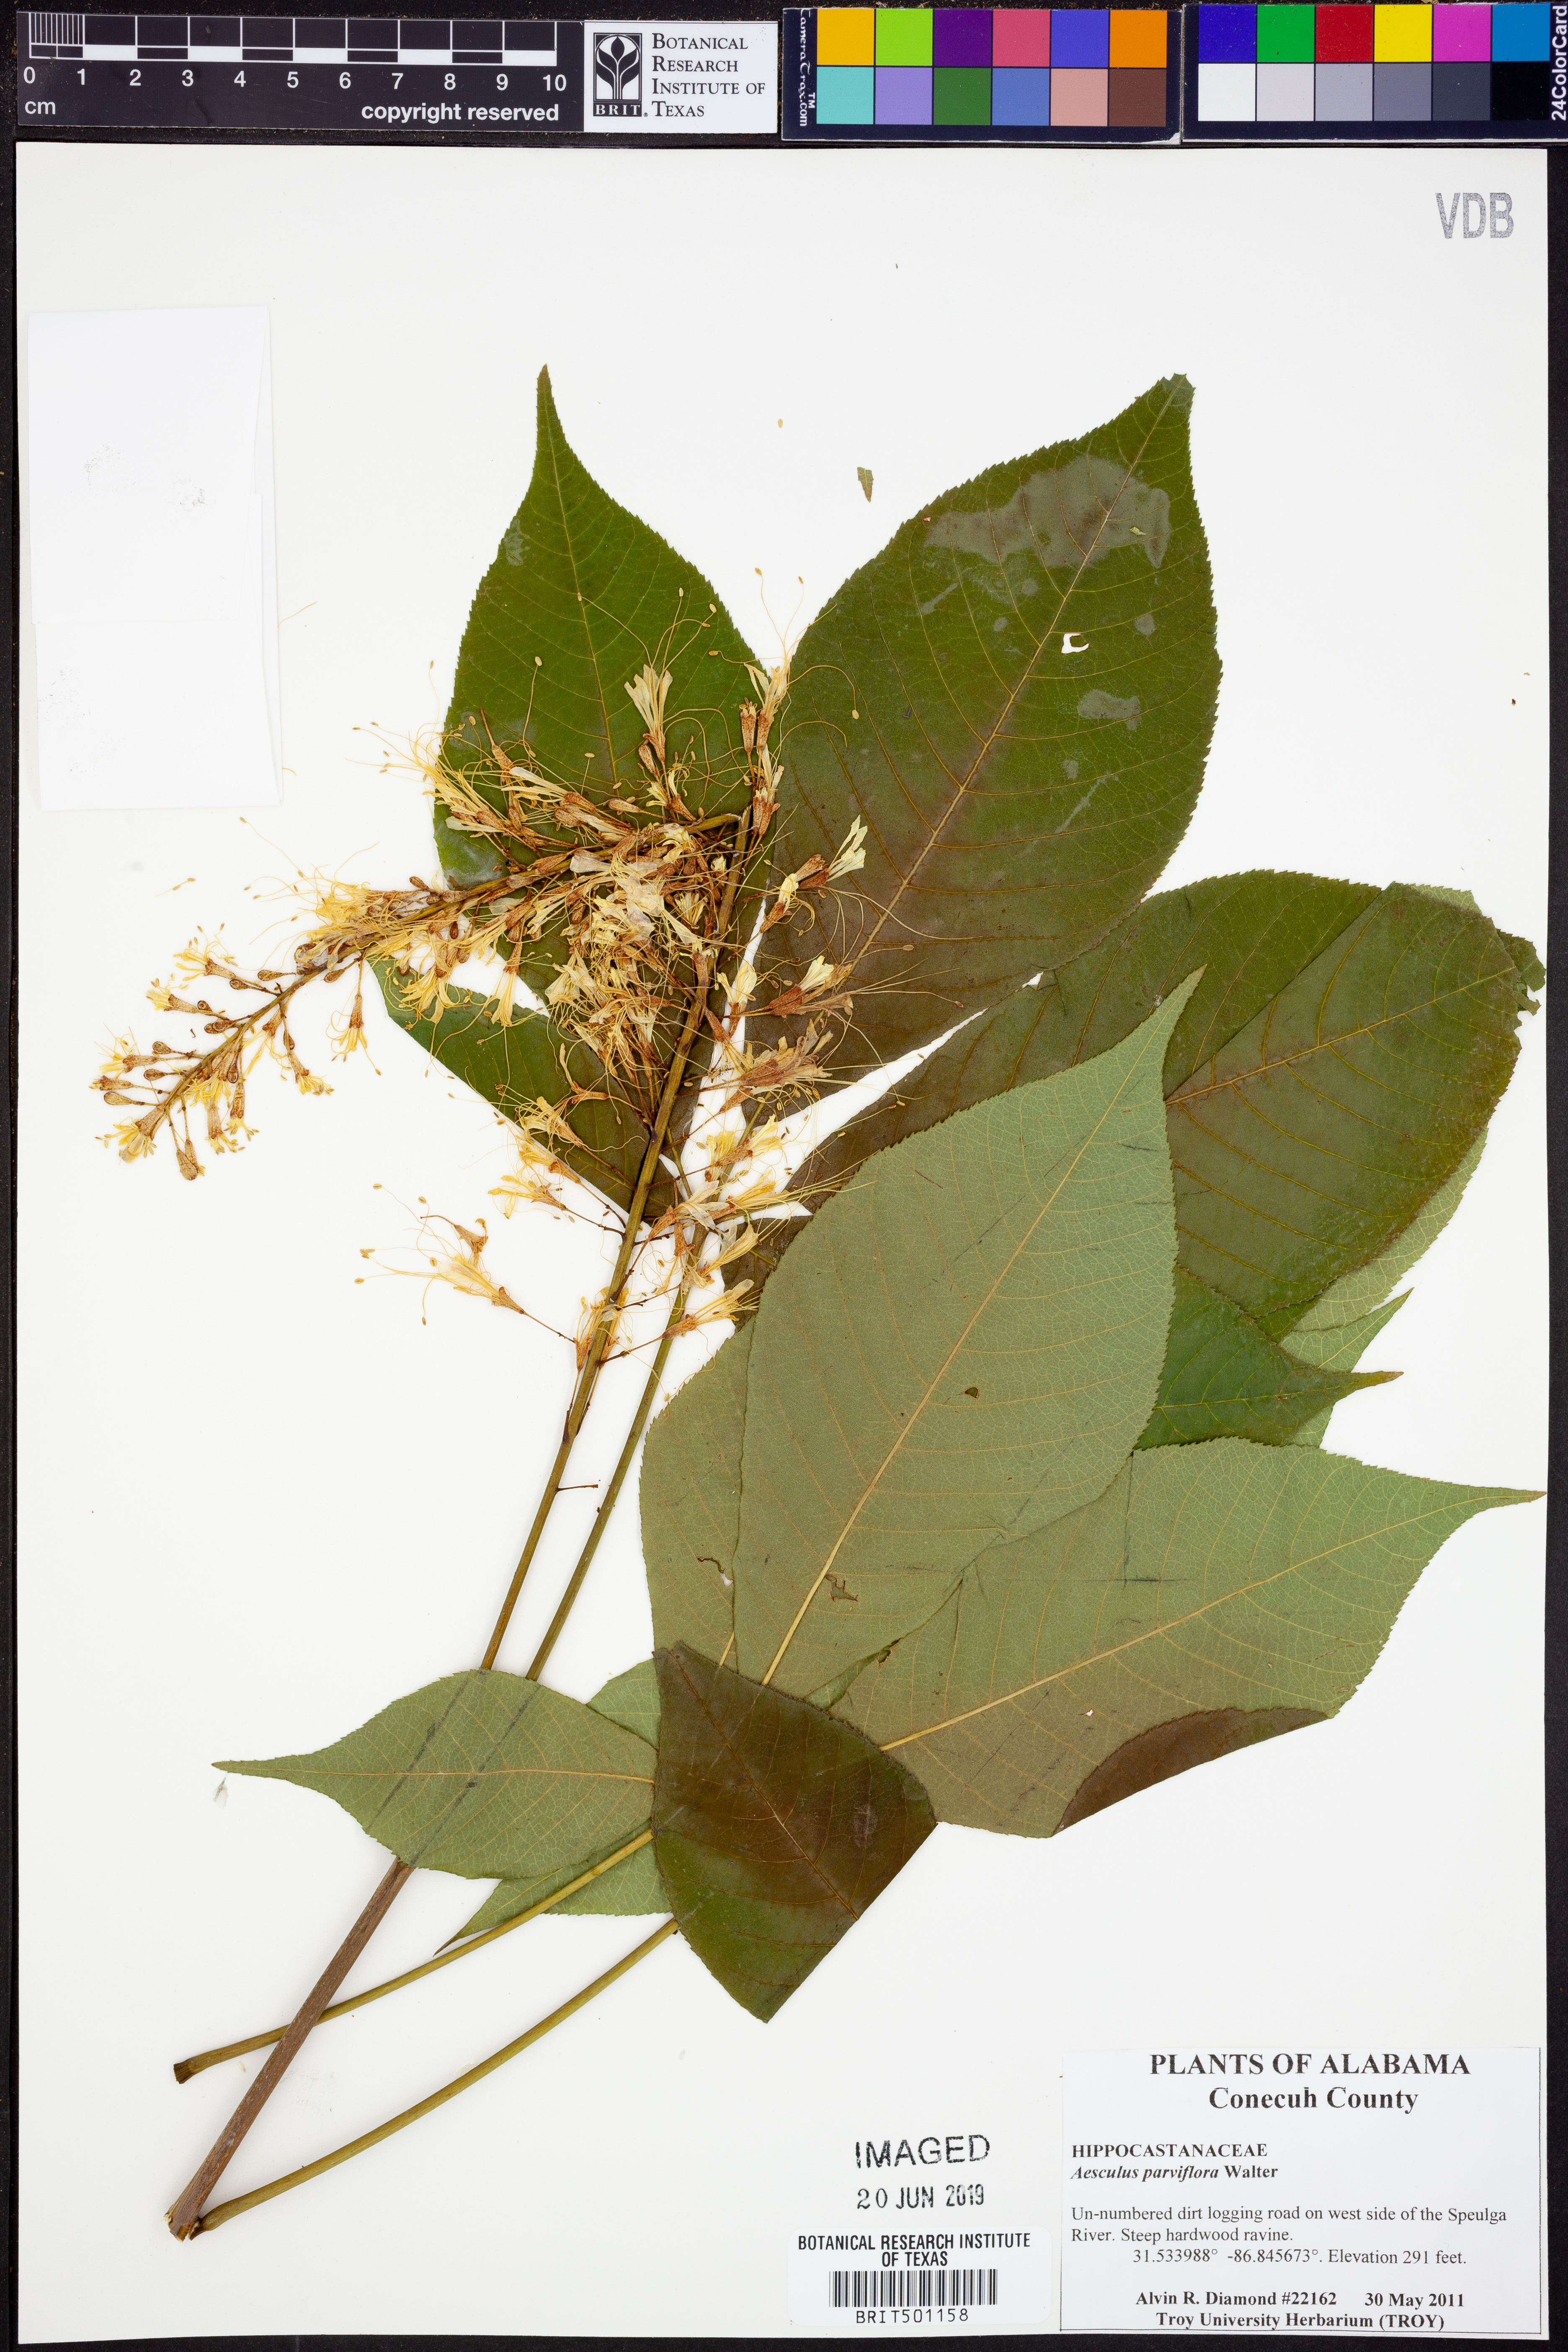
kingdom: Plantae
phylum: Tracheophyta
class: Magnoliopsida
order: Sapindales
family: Sapindaceae
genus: Aesculus
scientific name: Aesculus parviflora
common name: Bottlebrush buckeye
